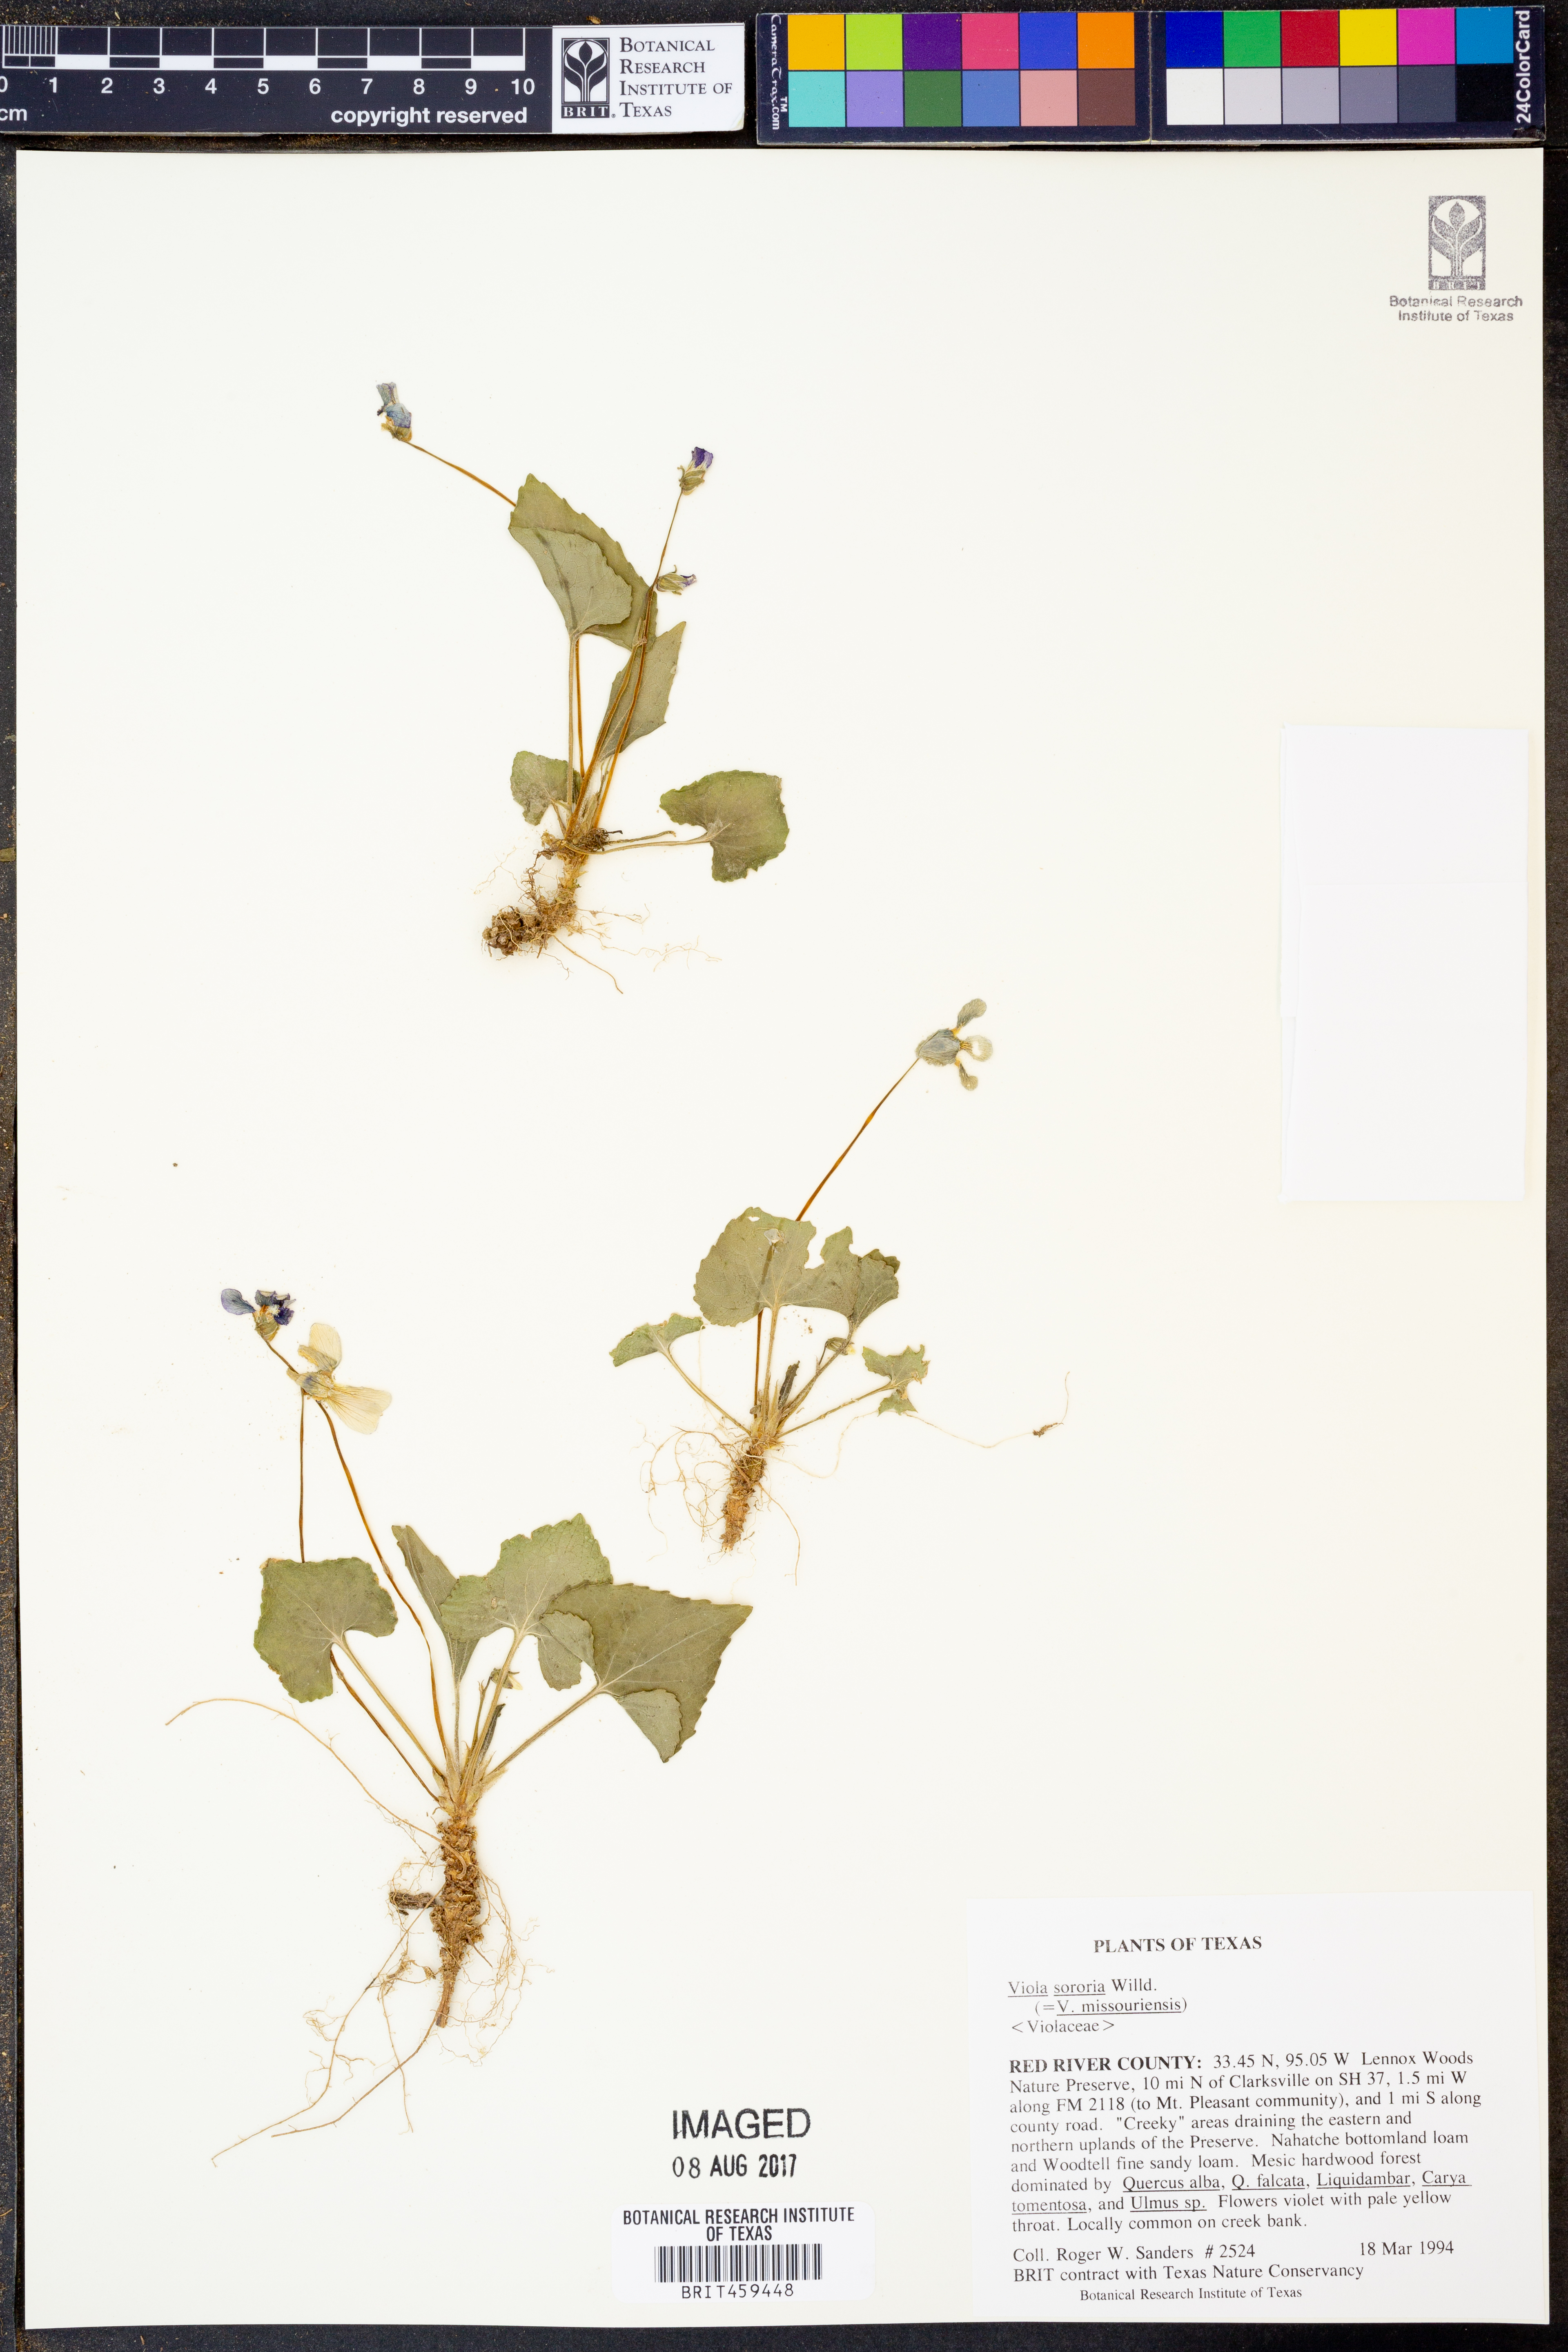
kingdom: Plantae
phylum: Tracheophyta
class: Magnoliopsida
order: Malpighiales
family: Violaceae
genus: Viola
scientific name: Viola sororia
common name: Dooryard violet
